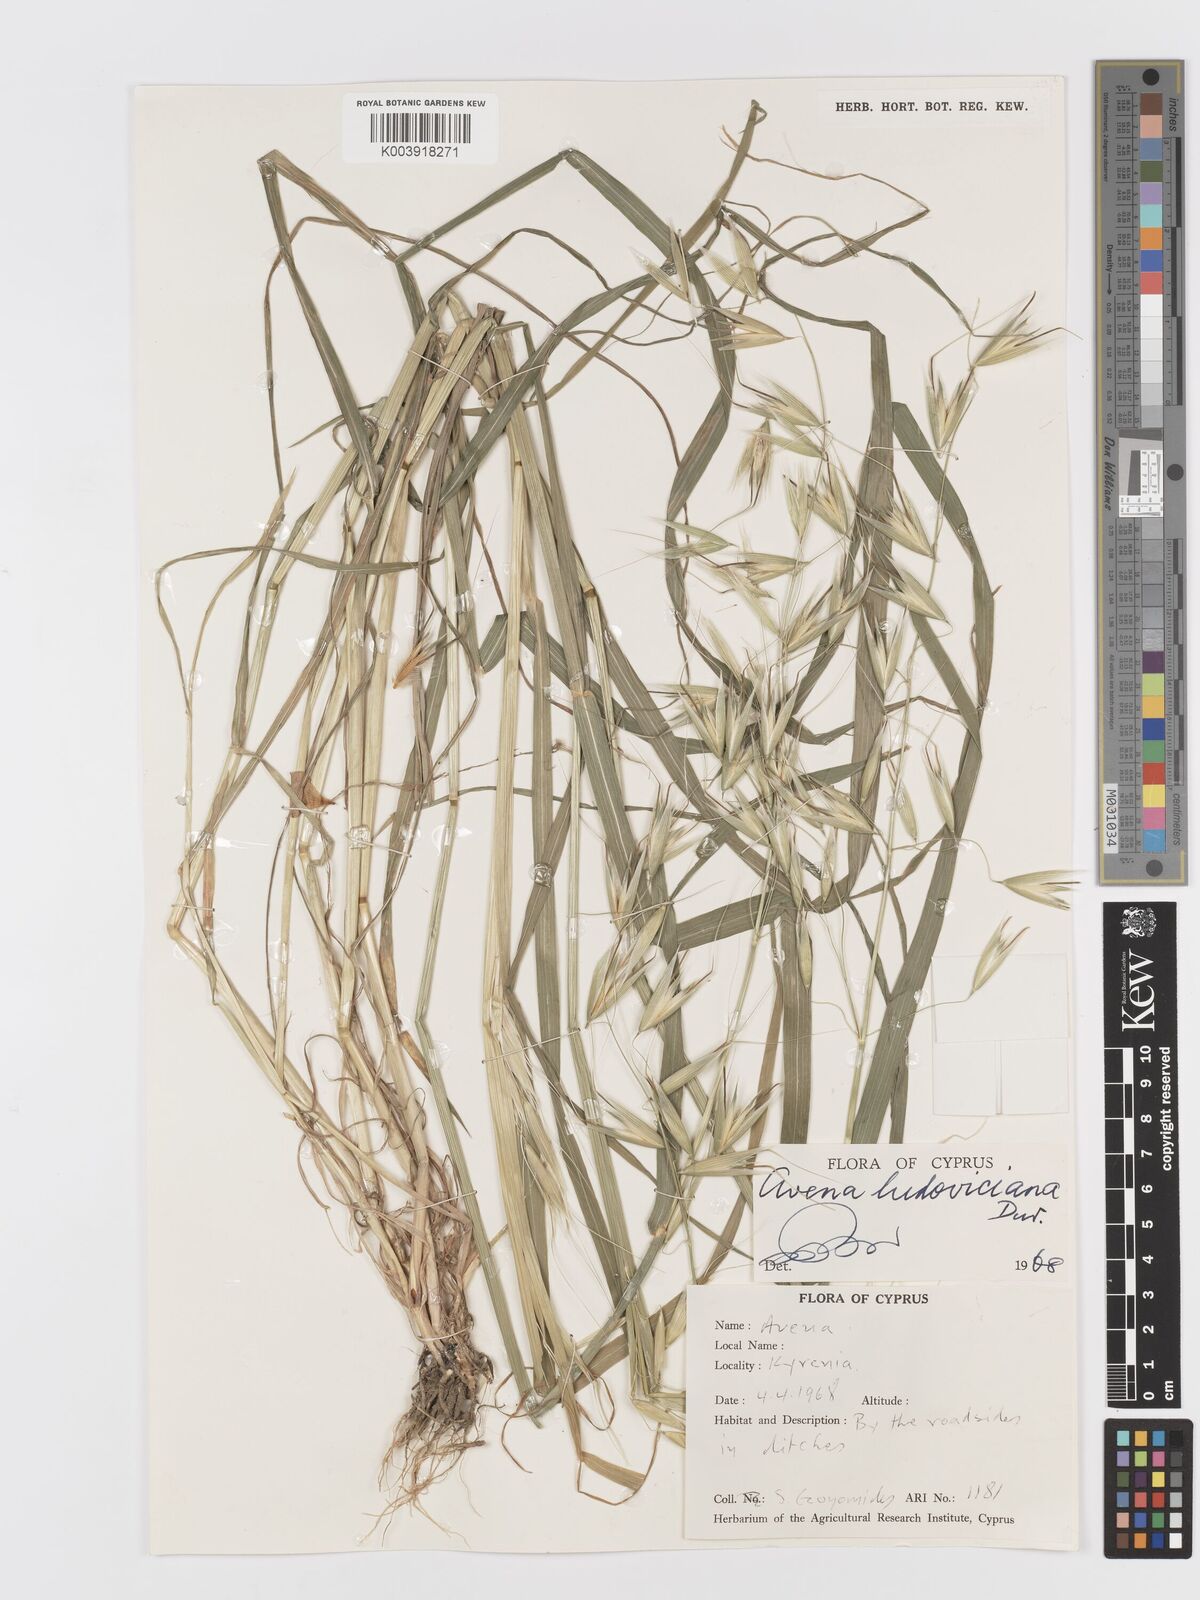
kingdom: Plantae
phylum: Tracheophyta
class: Liliopsida
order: Poales
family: Poaceae
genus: Avena
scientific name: Avena sterilis
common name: Animated oat
